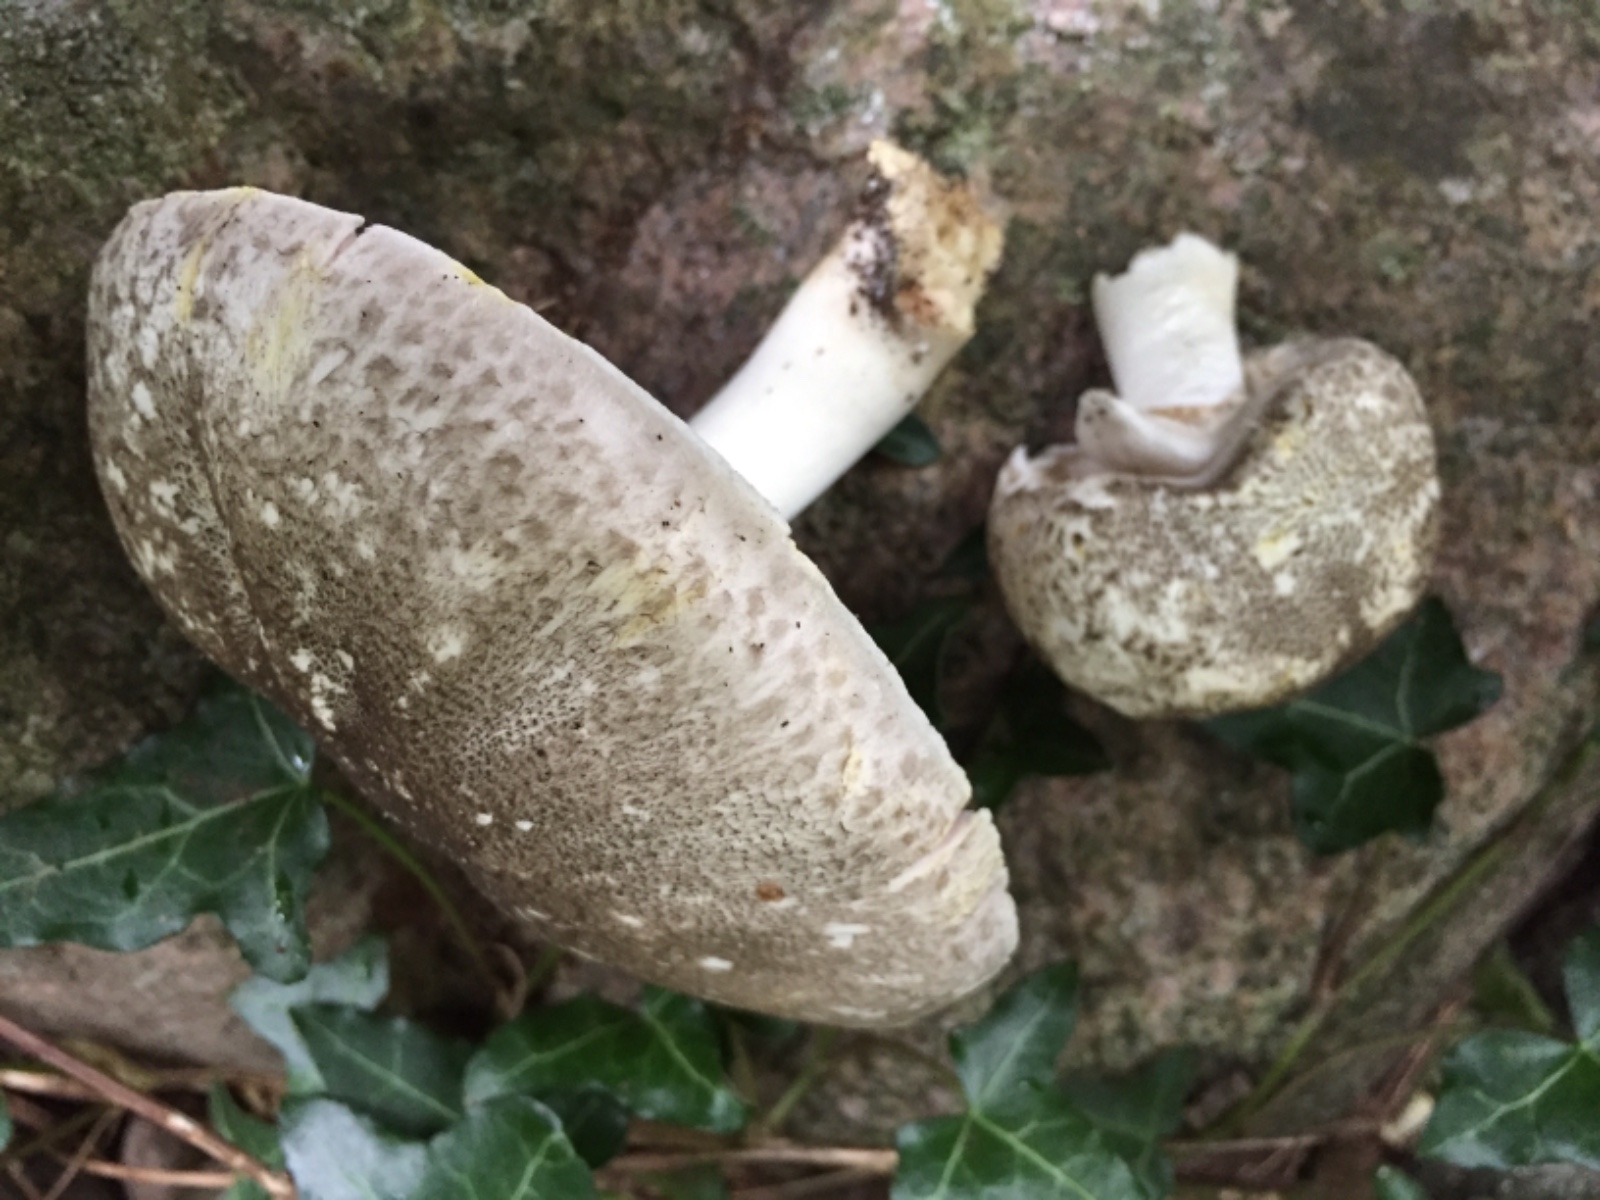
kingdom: Fungi
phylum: Basidiomycota
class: Agaricomycetes
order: Agaricales
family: Agaricaceae
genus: Agaricus
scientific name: Agaricus moelleri
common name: perlehøne-champignon
